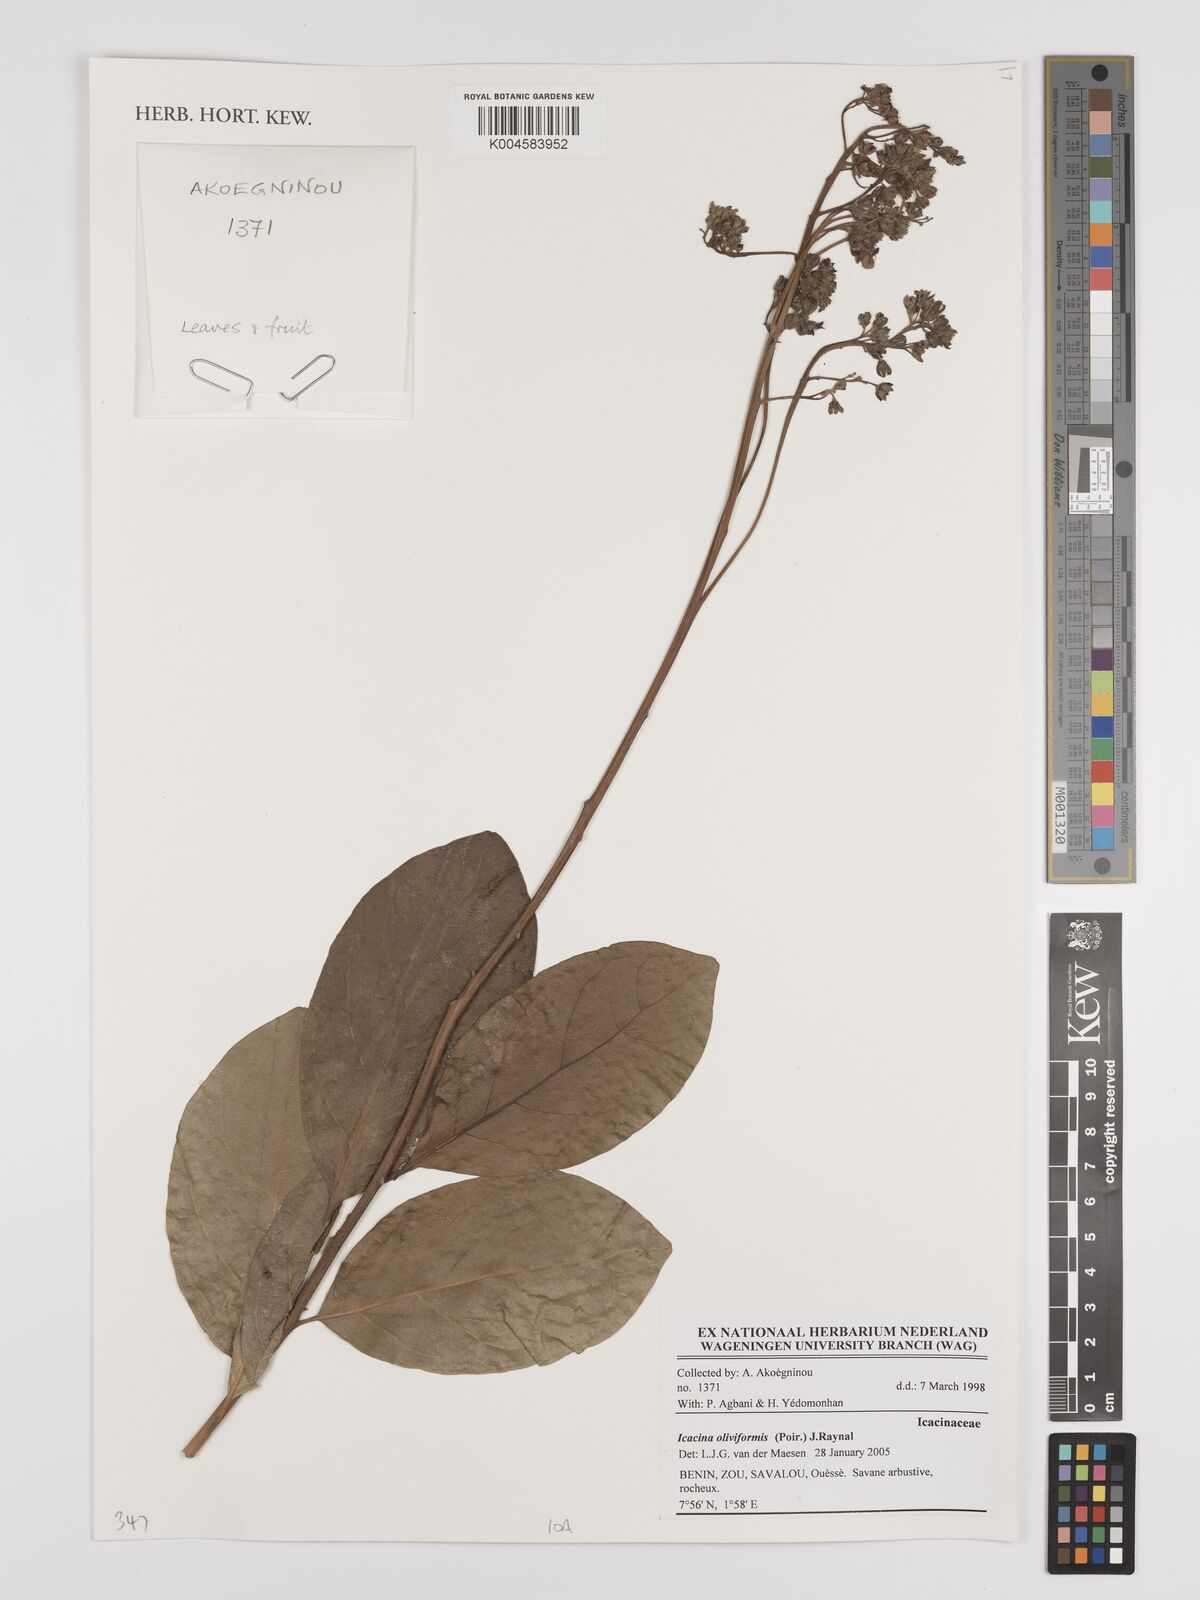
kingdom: Plantae
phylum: Tracheophyta
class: Magnoliopsida
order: Icacinales
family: Icacinaceae
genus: Icacina
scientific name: Icacina oliviformis
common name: False yam
